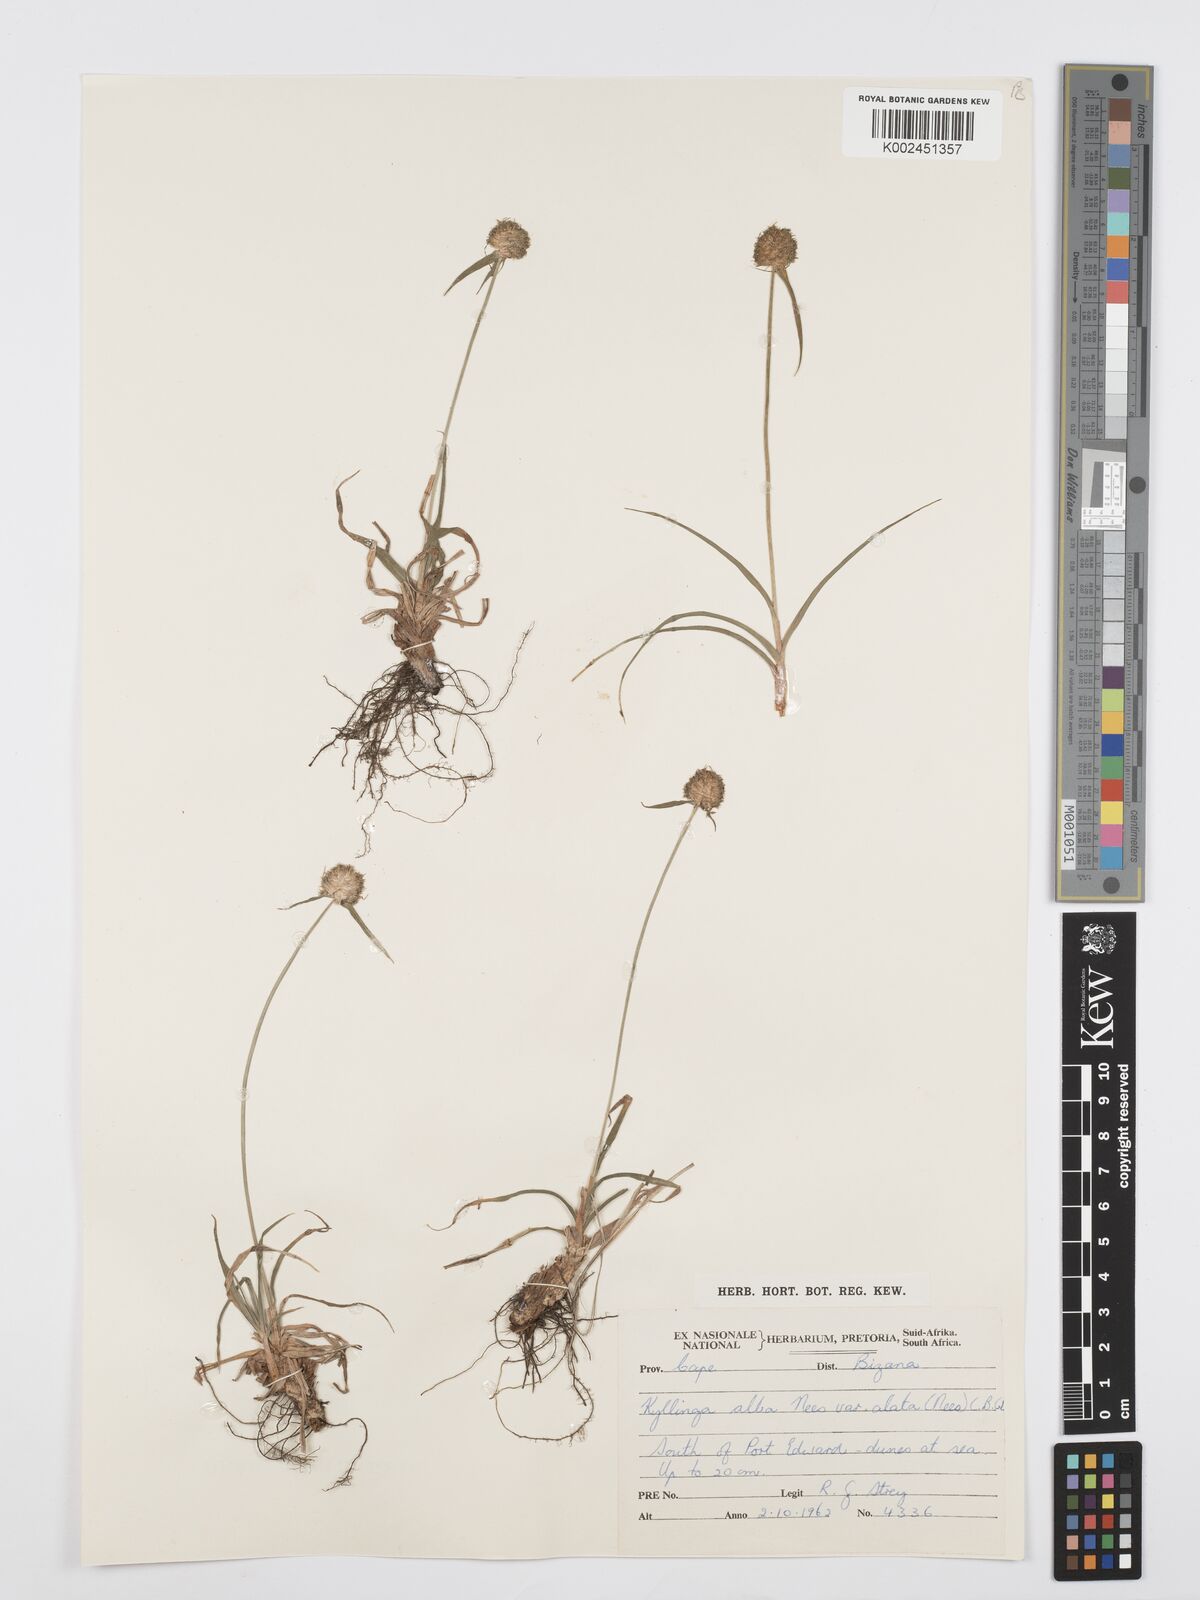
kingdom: Plantae
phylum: Tracheophyta
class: Liliopsida
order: Poales
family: Cyperaceae
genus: Cyperus
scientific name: Cyperus
